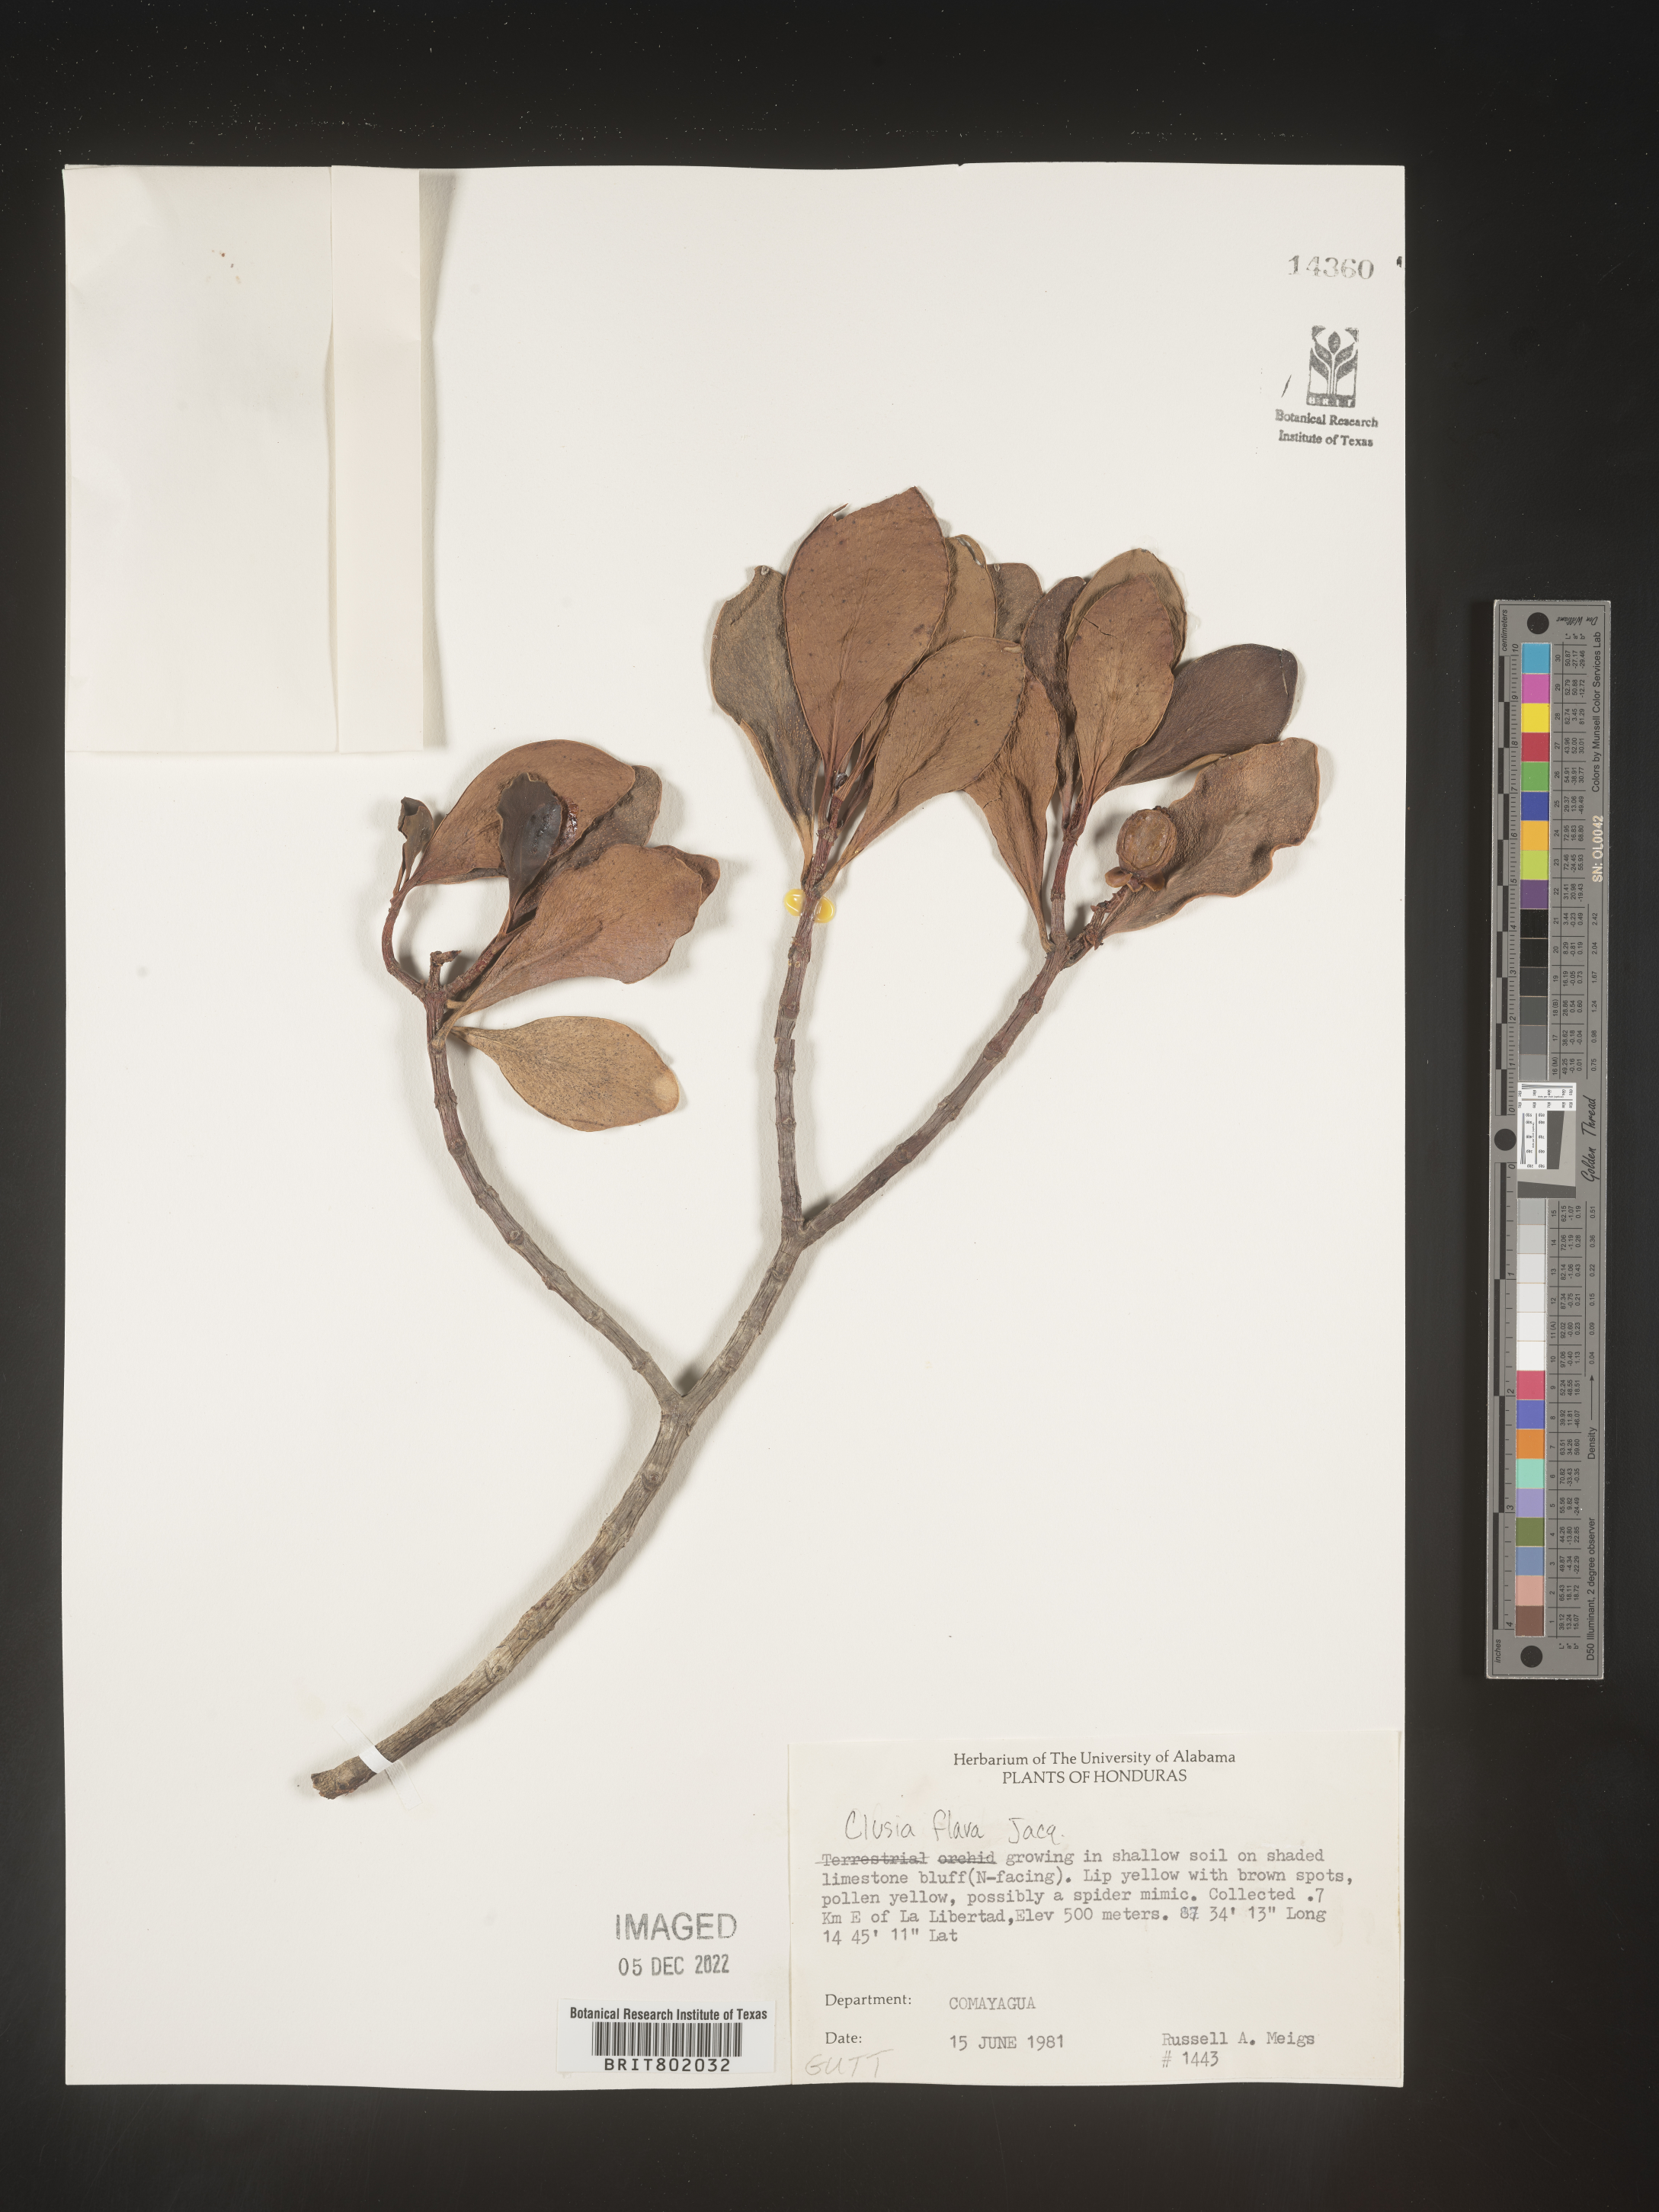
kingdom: Plantae
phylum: Tracheophyta
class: Magnoliopsida
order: Malpighiales
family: Clusiaceae
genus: Clusia
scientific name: Clusia
